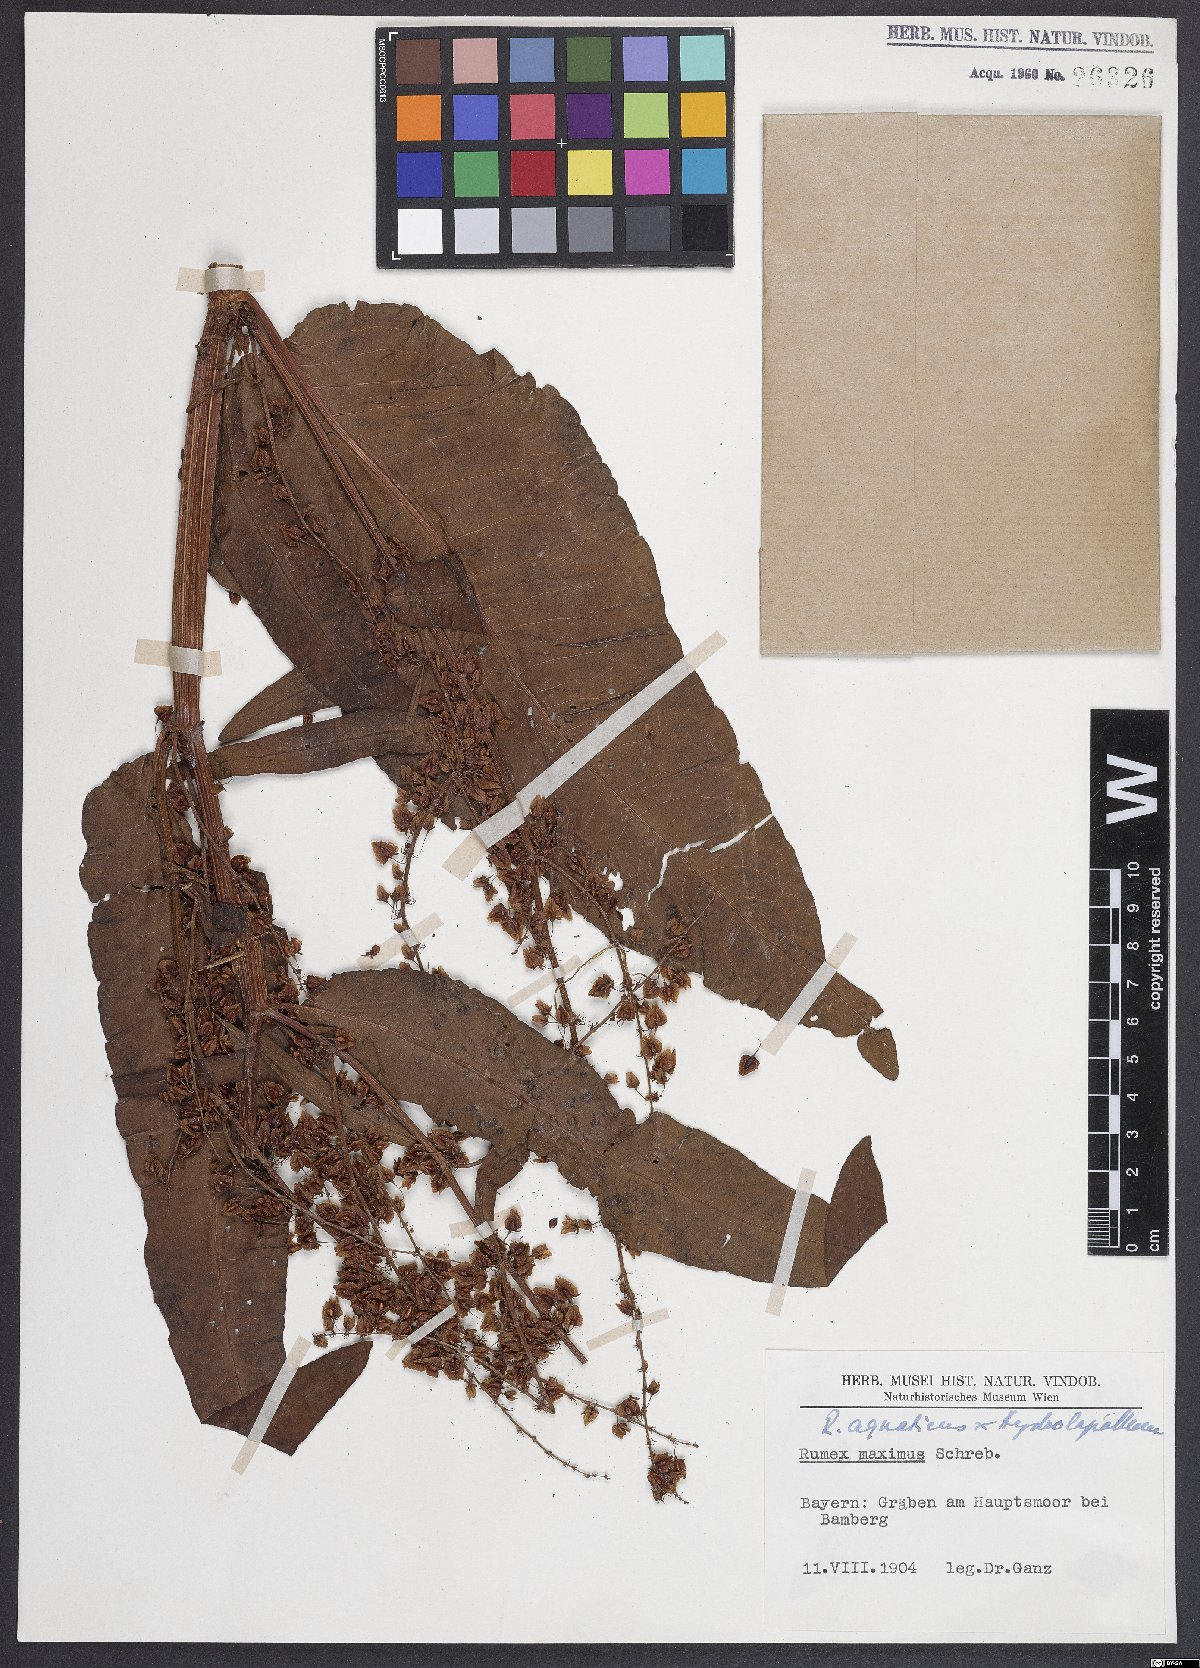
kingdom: Plantae
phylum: Tracheophyta
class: Magnoliopsida
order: Caryophyllales
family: Polygonaceae
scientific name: Polygonaceae
